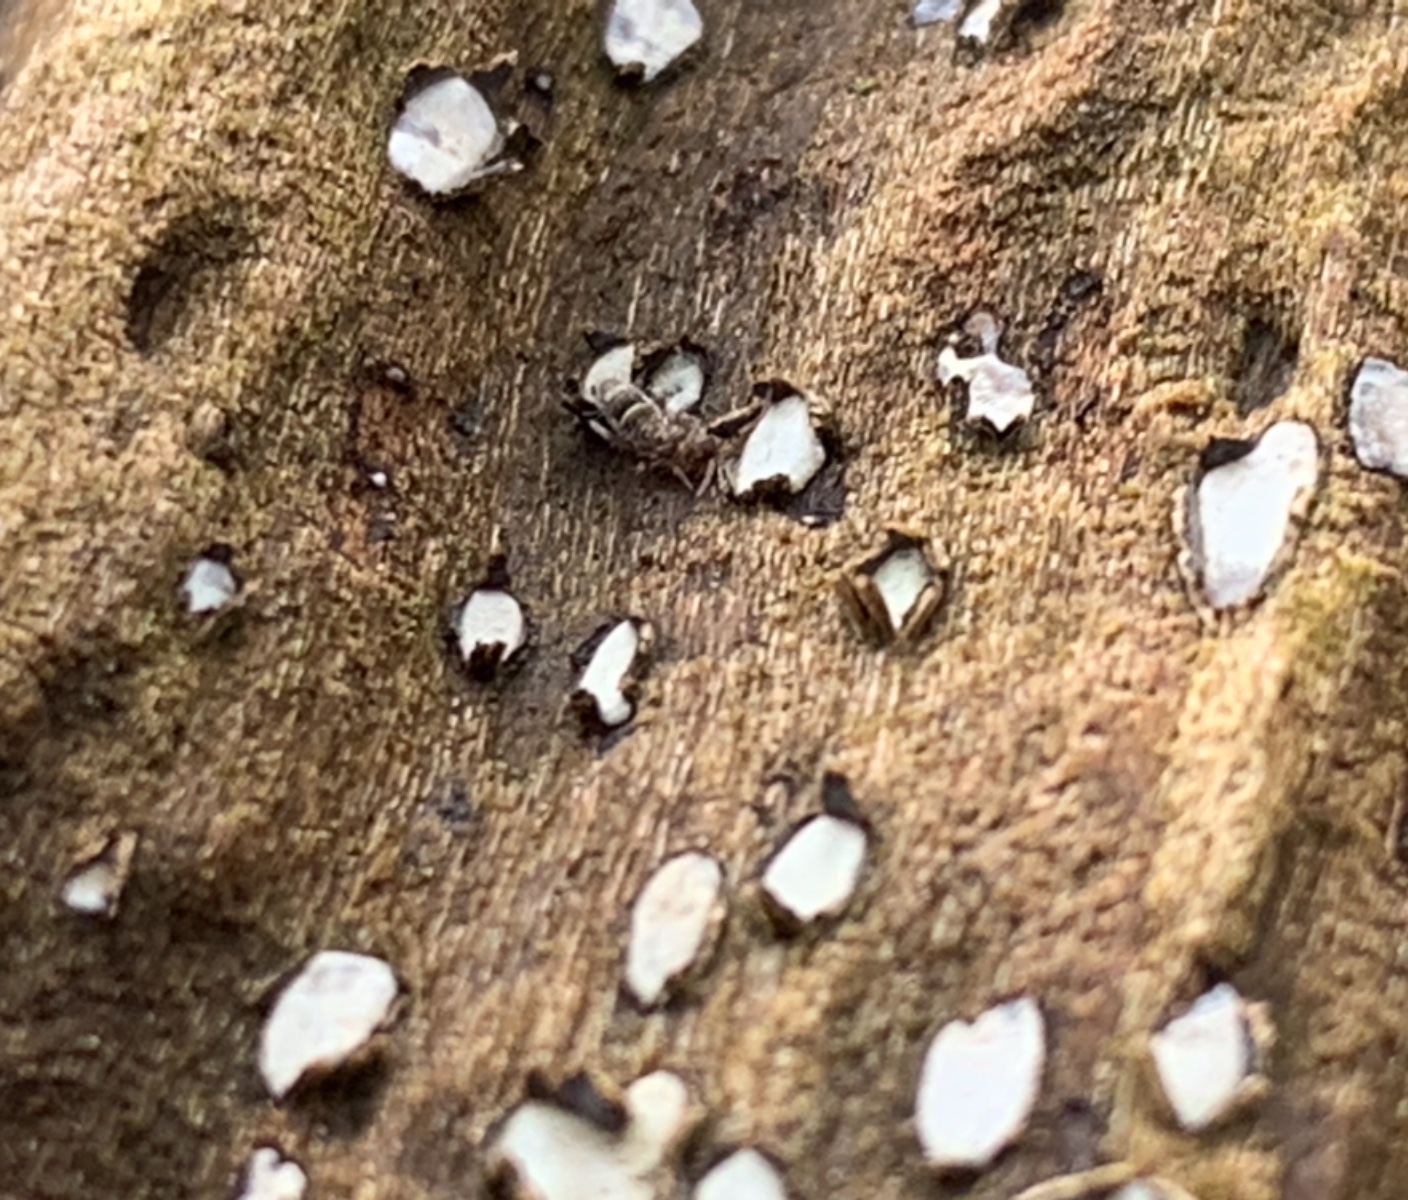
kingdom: Fungi
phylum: Ascomycota
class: Leotiomycetes
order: Chaetomellales
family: Marthamycetaceae
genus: Propolis
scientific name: Propolis farinosa
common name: almindelig vedsprængerskive
